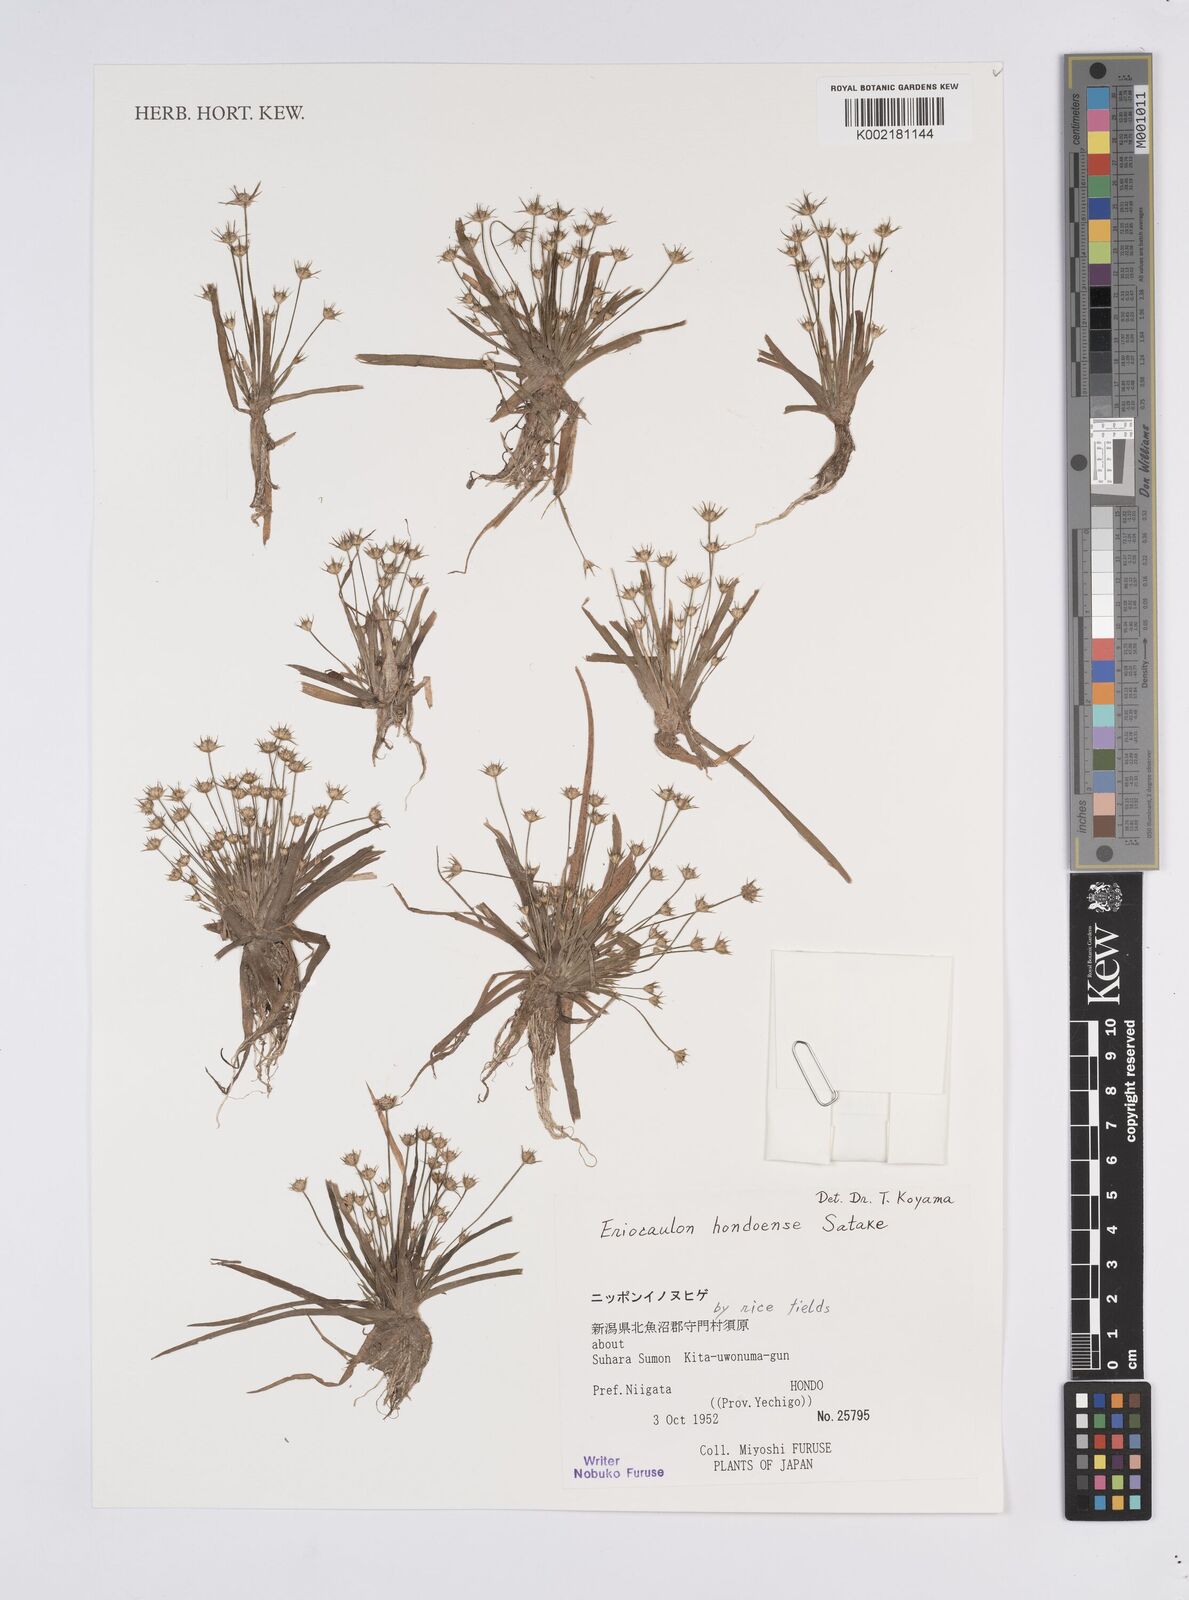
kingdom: Plantae
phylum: Tracheophyta
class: Liliopsida
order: Poales
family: Eriocaulaceae
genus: Eriocaulon
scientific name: Eriocaulon taquetii
